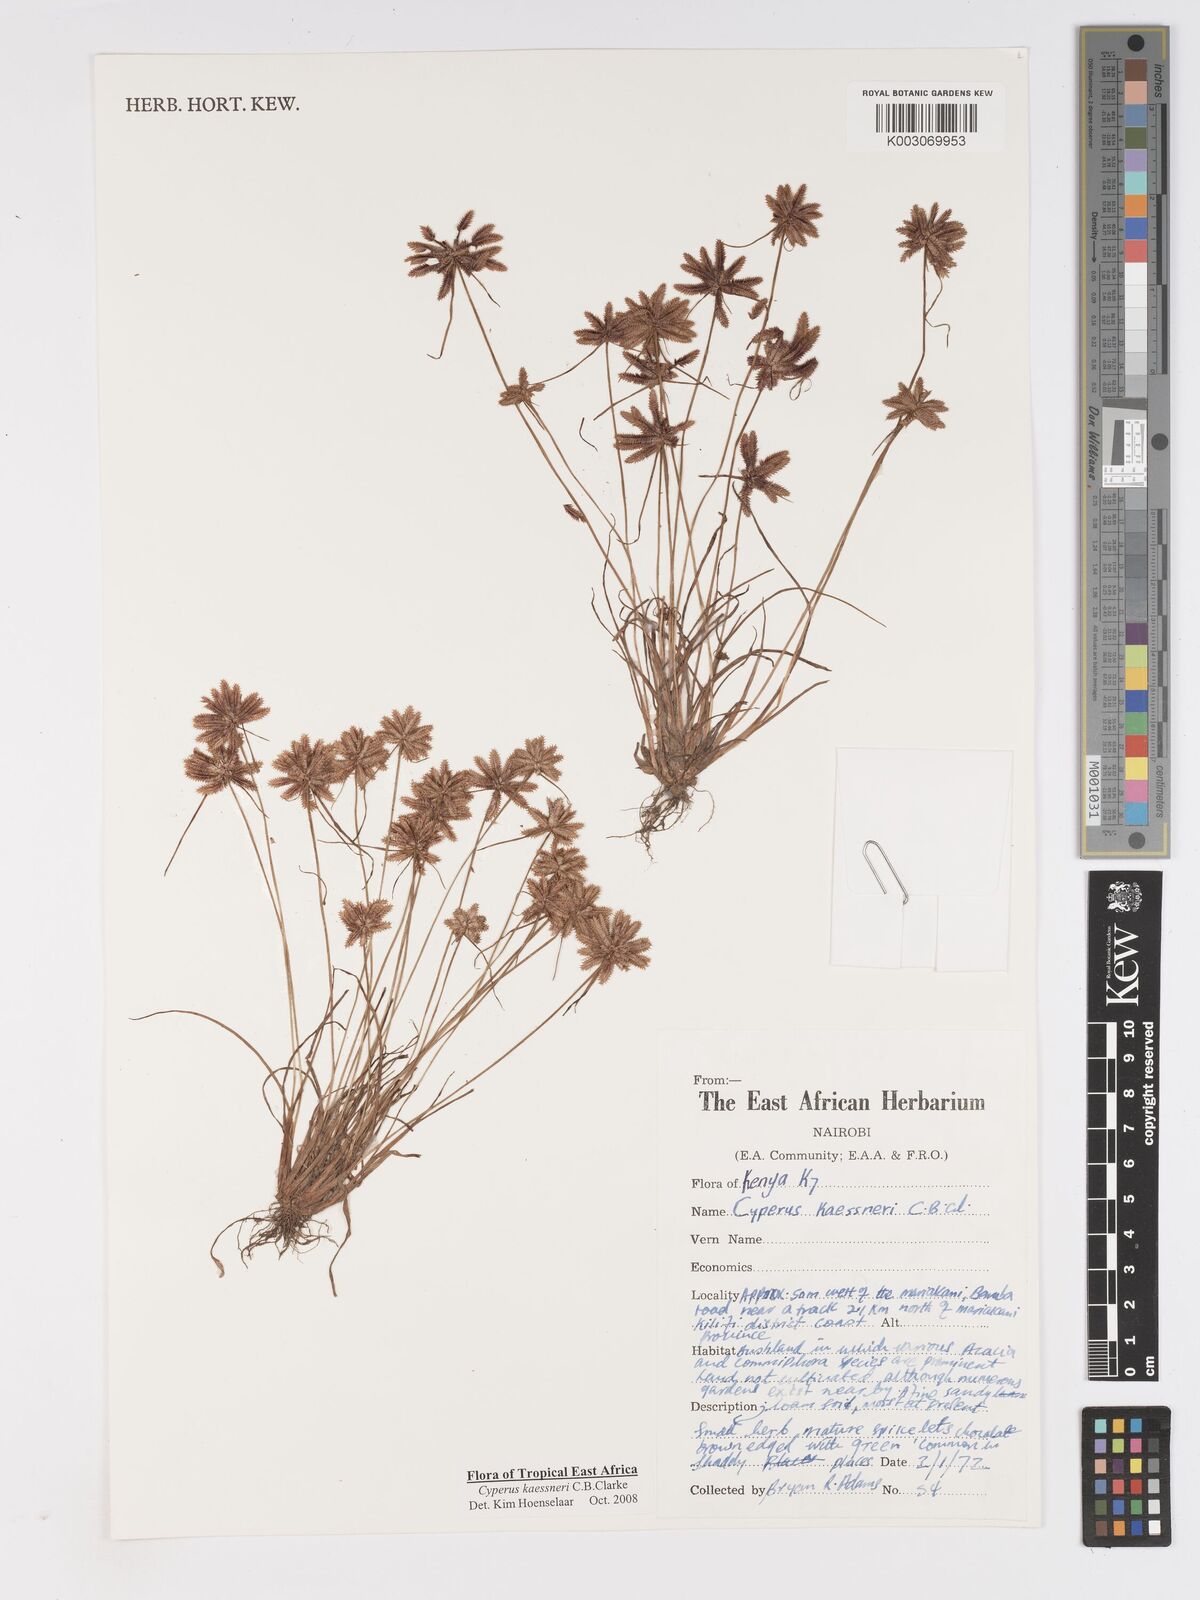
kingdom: Plantae
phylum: Tracheophyta
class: Liliopsida
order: Poales
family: Cyperaceae
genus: Cyperus
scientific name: Cyperus kaessneri
